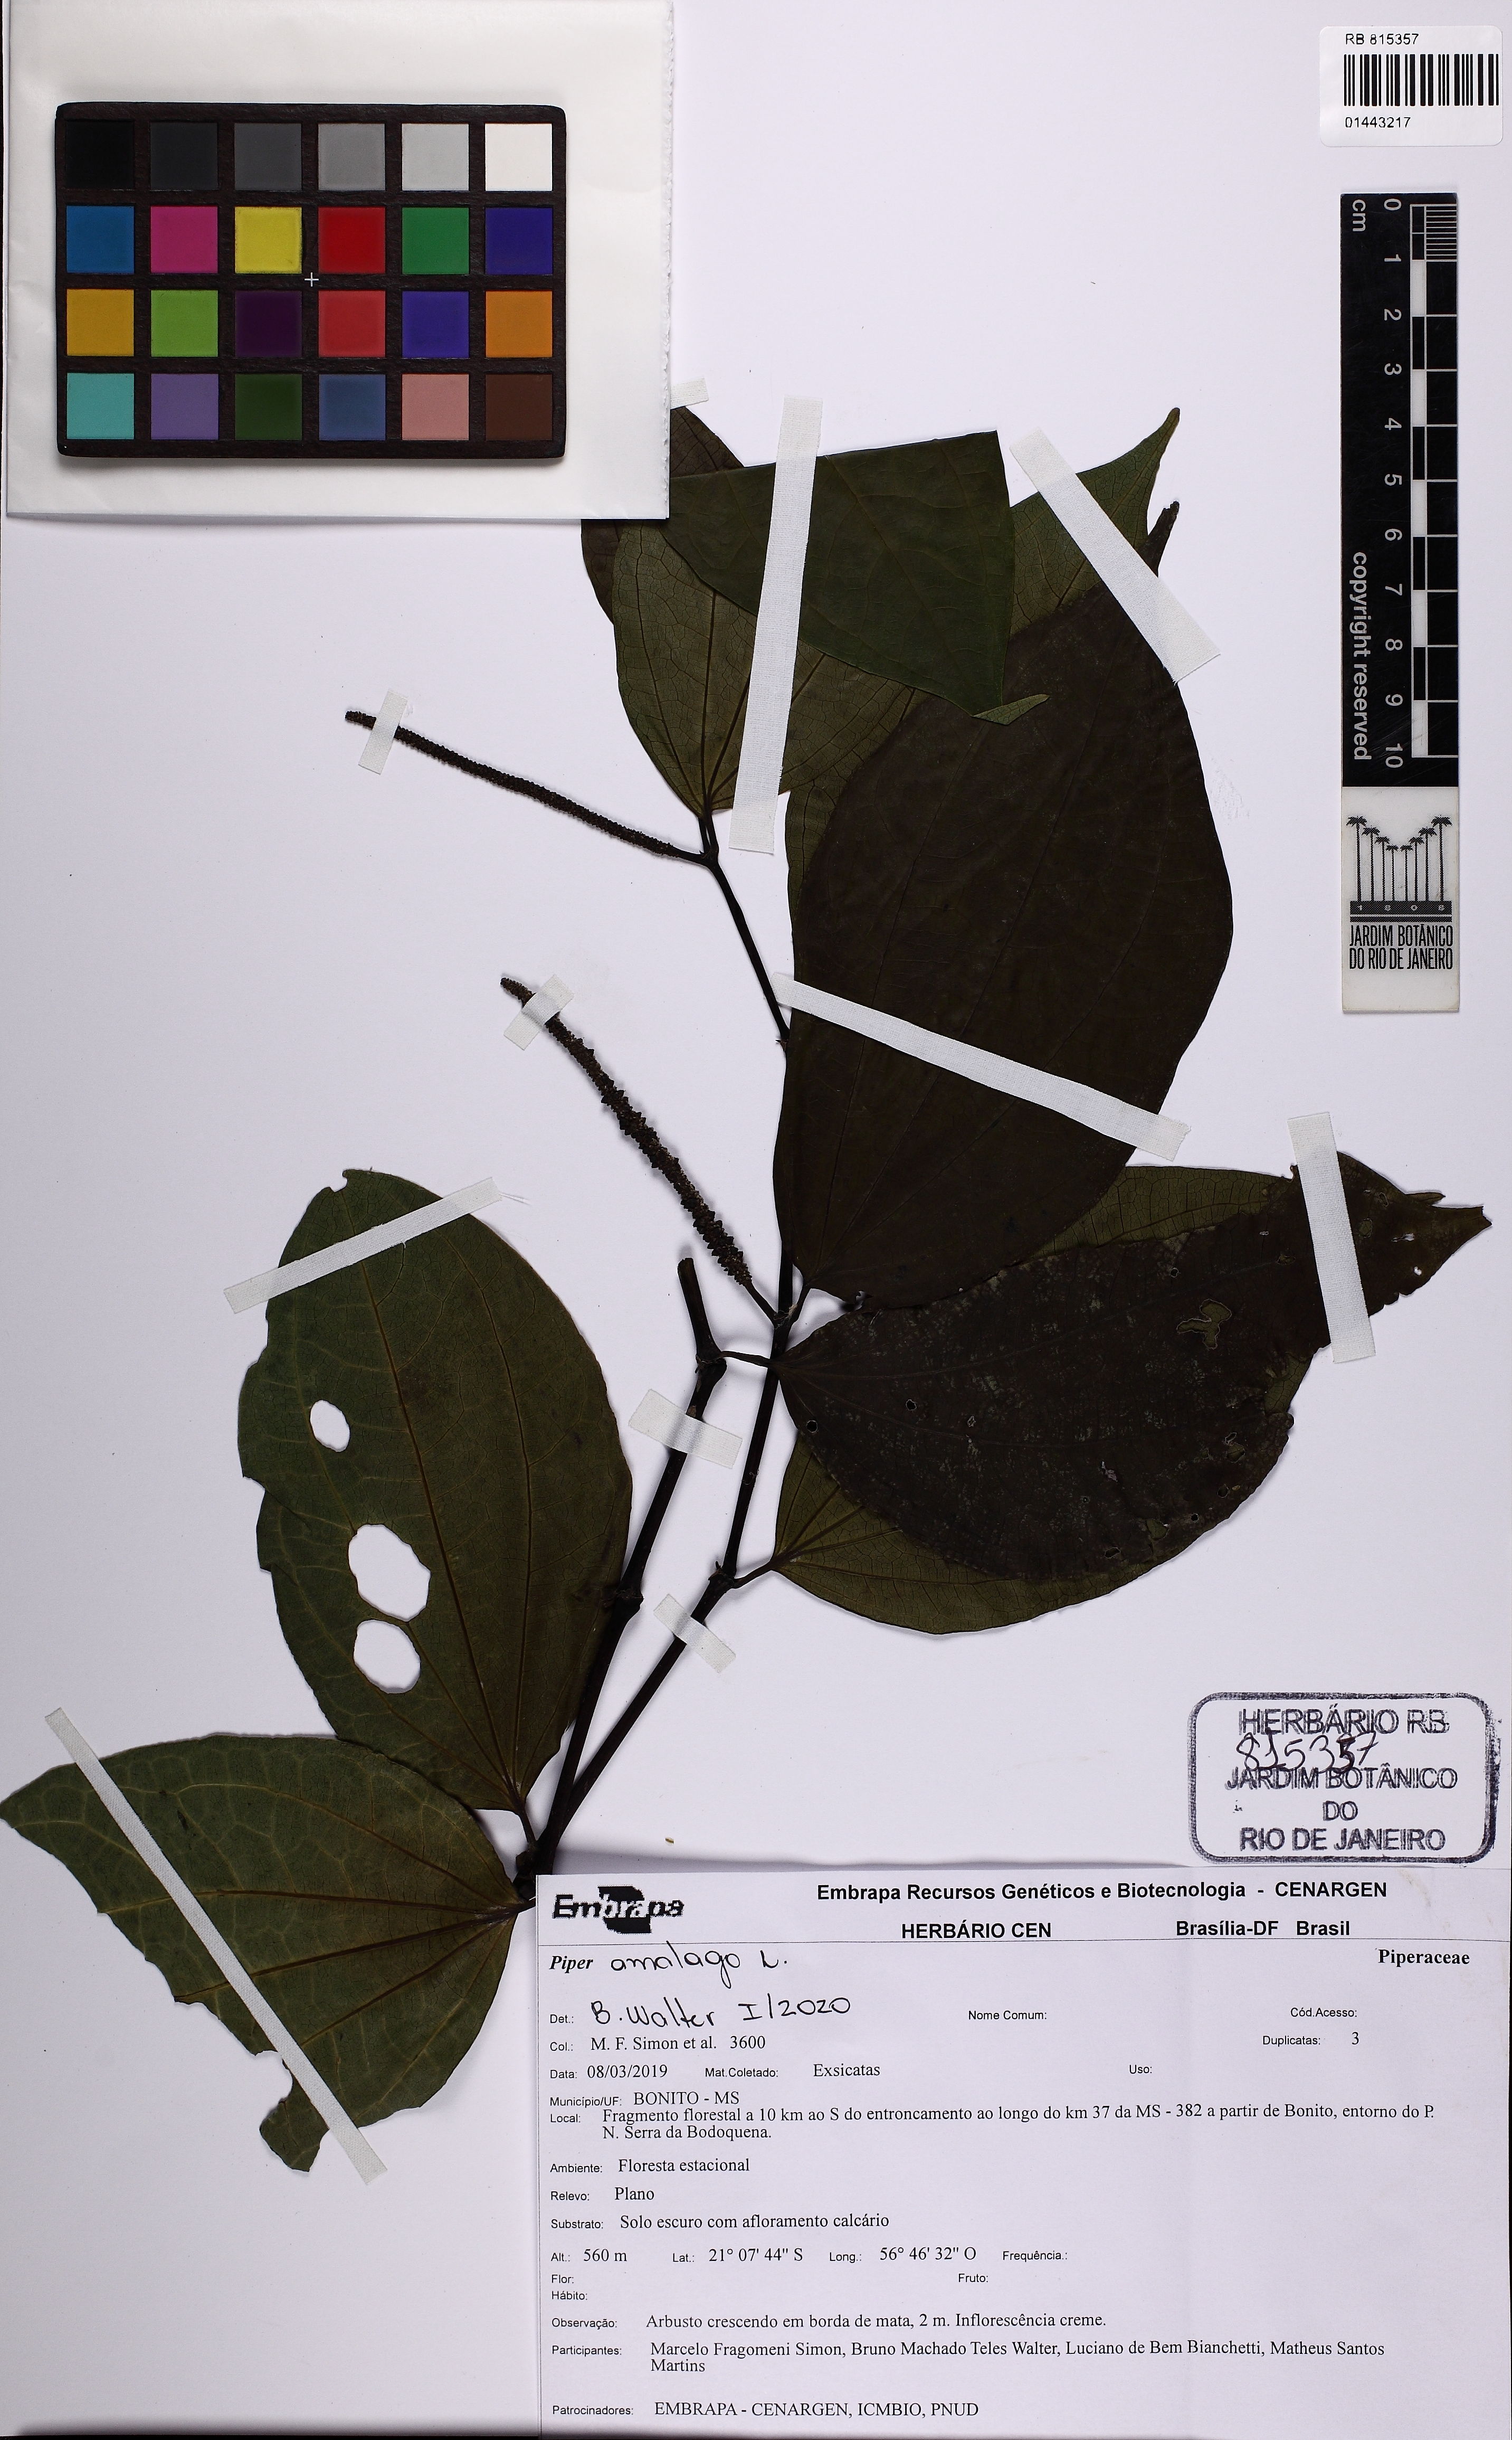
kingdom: Plantae
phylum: Tracheophyta
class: Magnoliopsida
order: Piperales
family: Piperaceae
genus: Piper
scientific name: Piper amalago
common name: Pepper-elder
